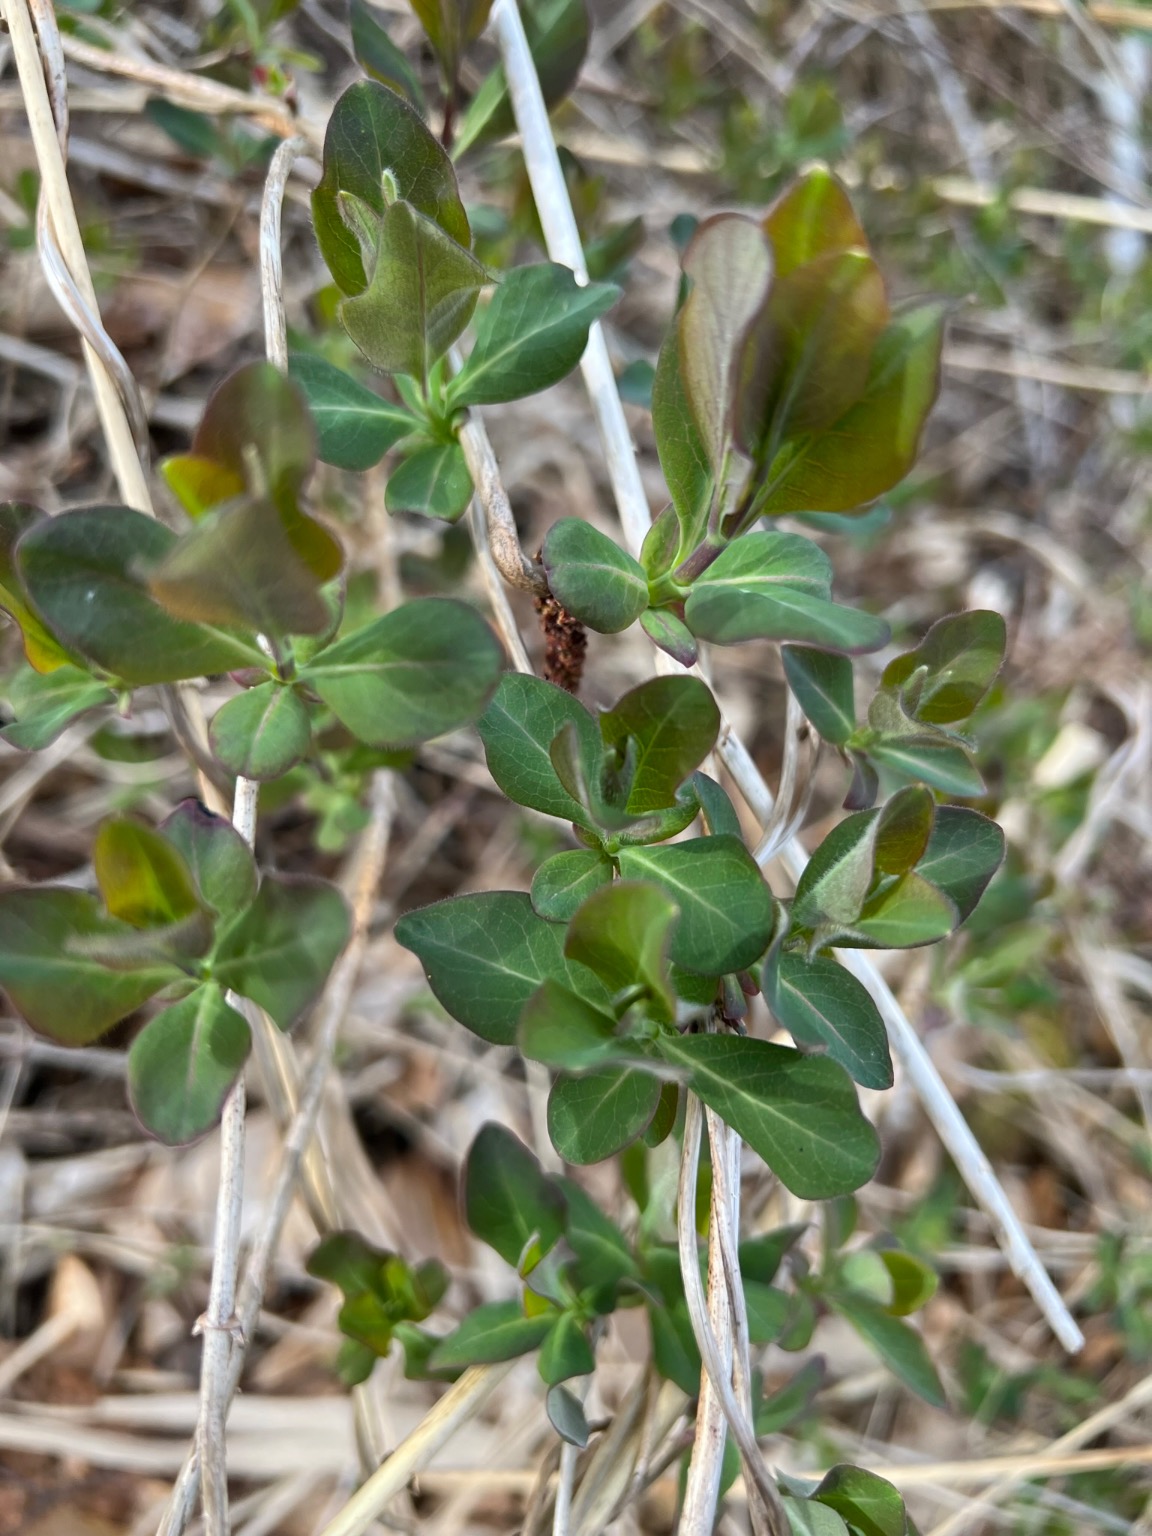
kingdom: Plantae
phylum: Tracheophyta
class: Magnoliopsida
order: Dipsacales
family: Caprifoliaceae
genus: Lonicera
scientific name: Lonicera periclymenum
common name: Almindelig gedeblad
